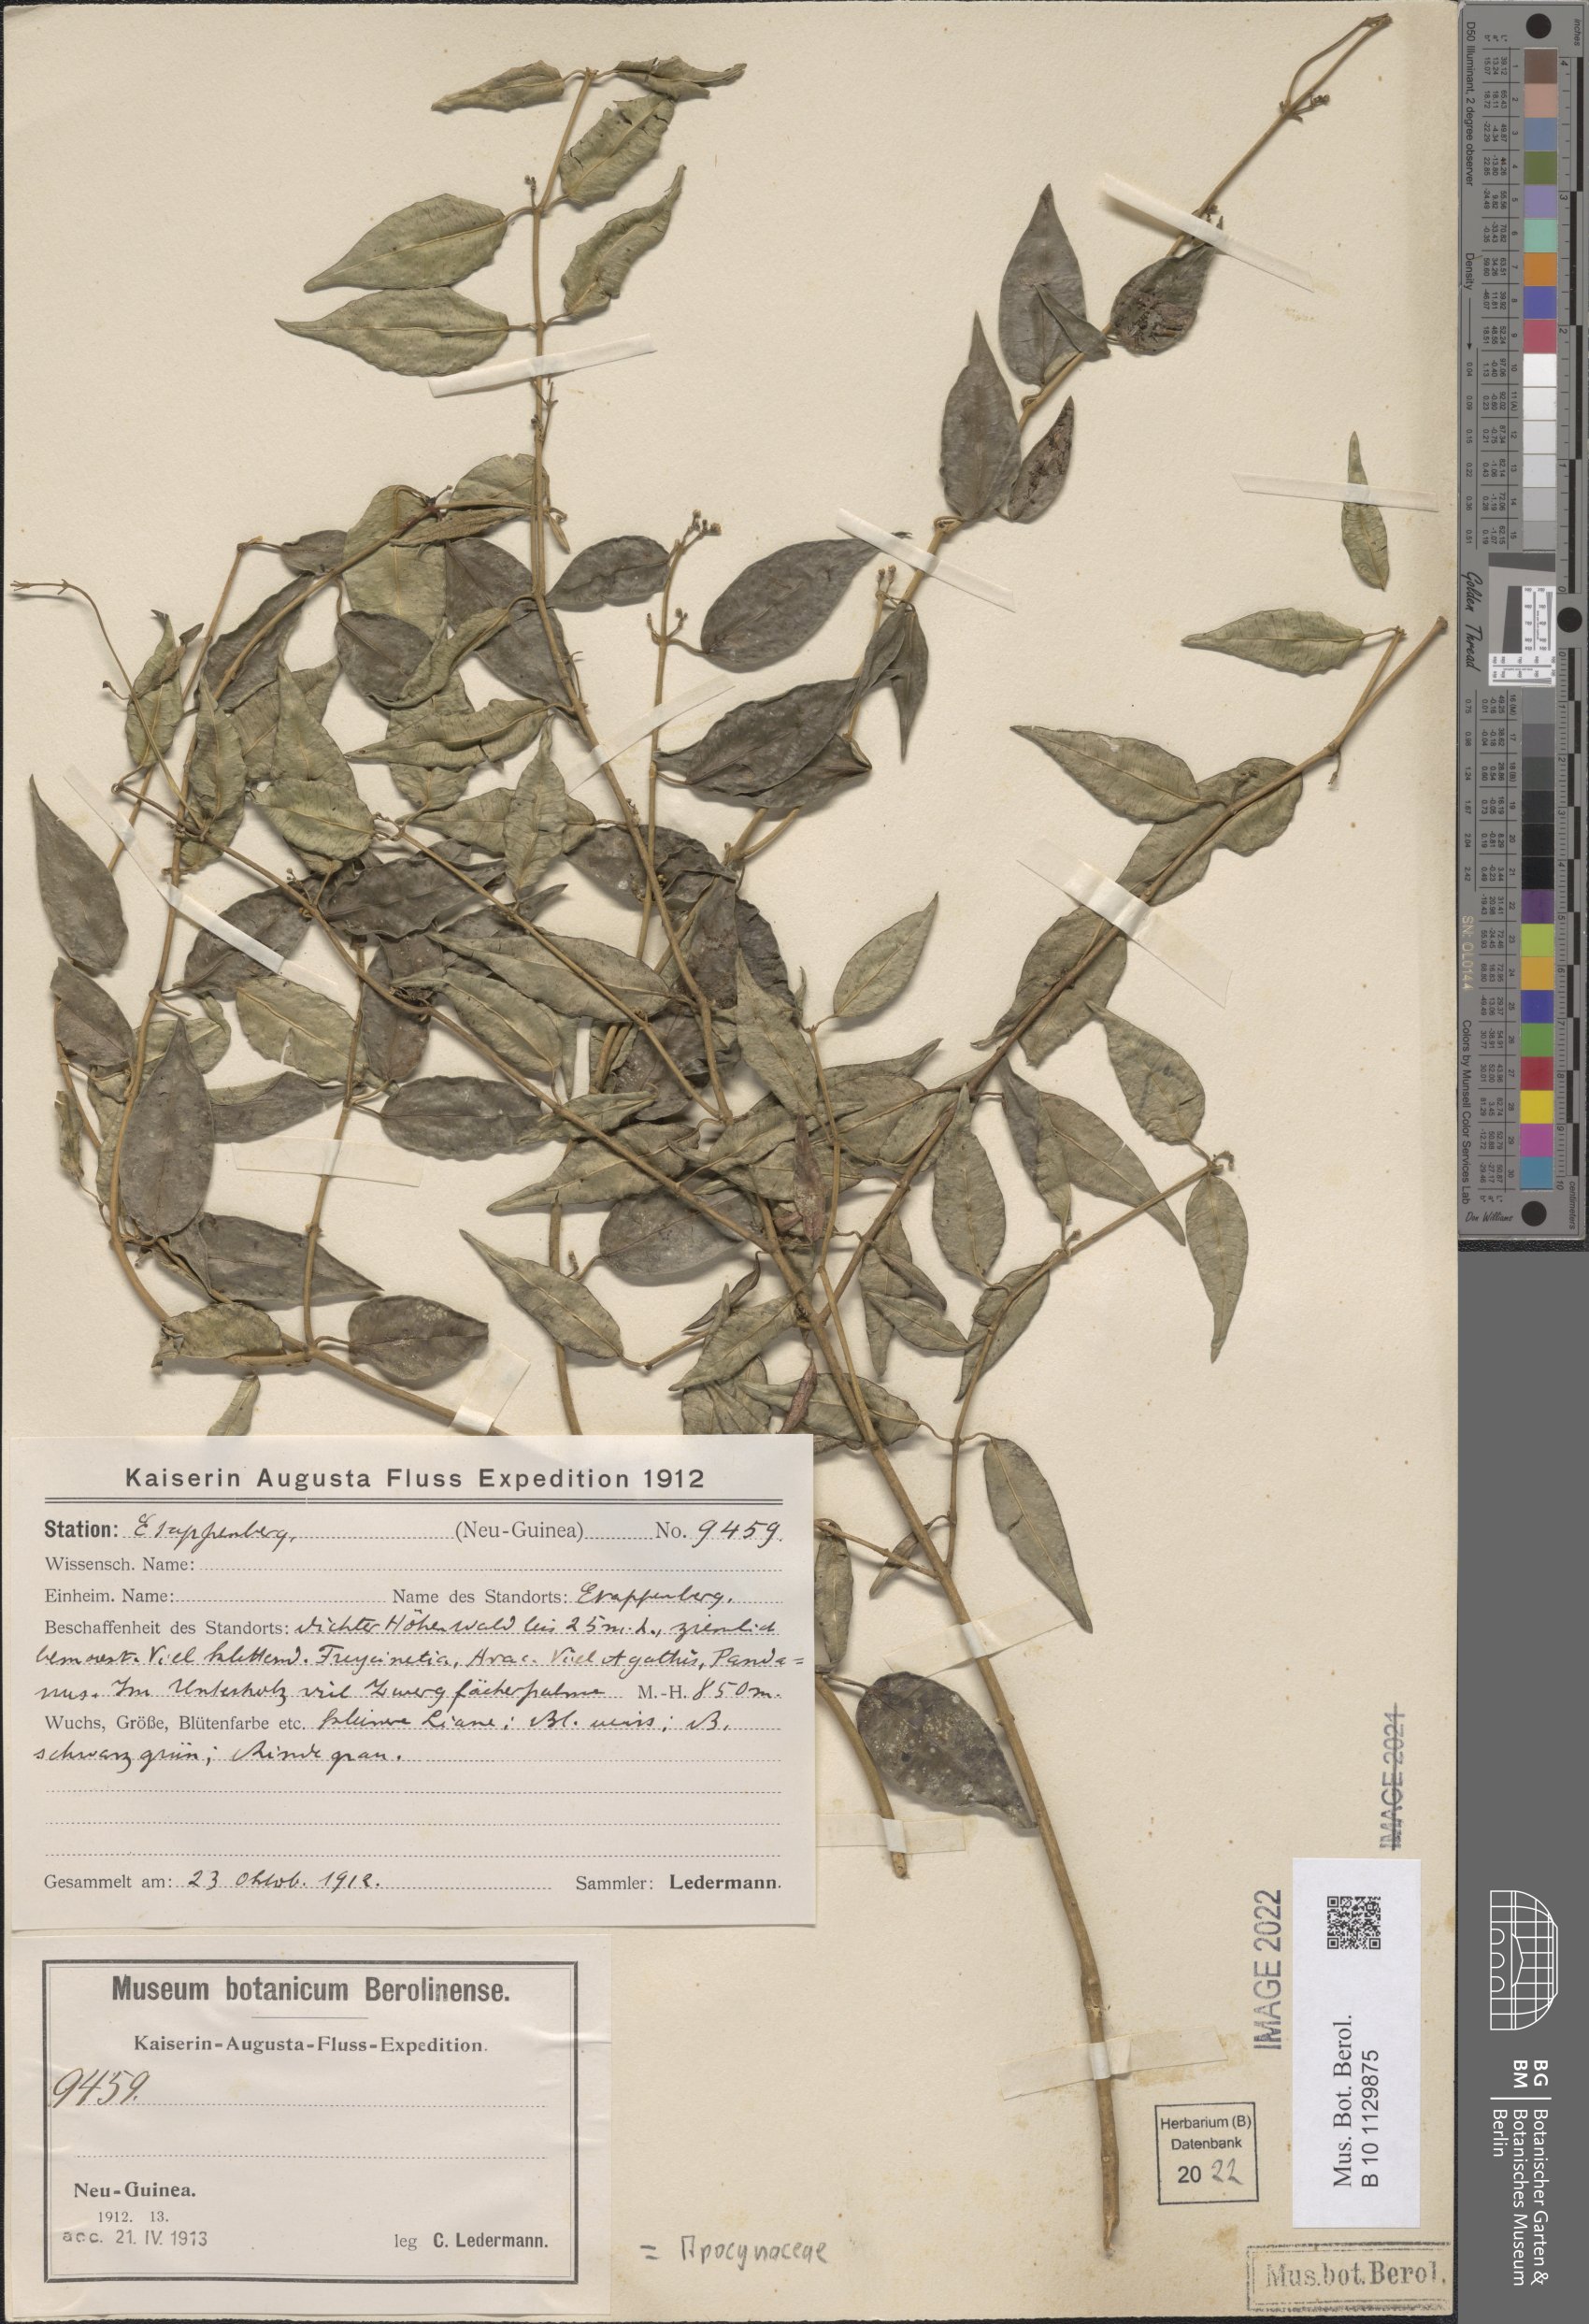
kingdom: Plantae
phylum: Tracheophyta
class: Magnoliopsida
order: Gentianales
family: Apocynaceae
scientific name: Apocynaceae
